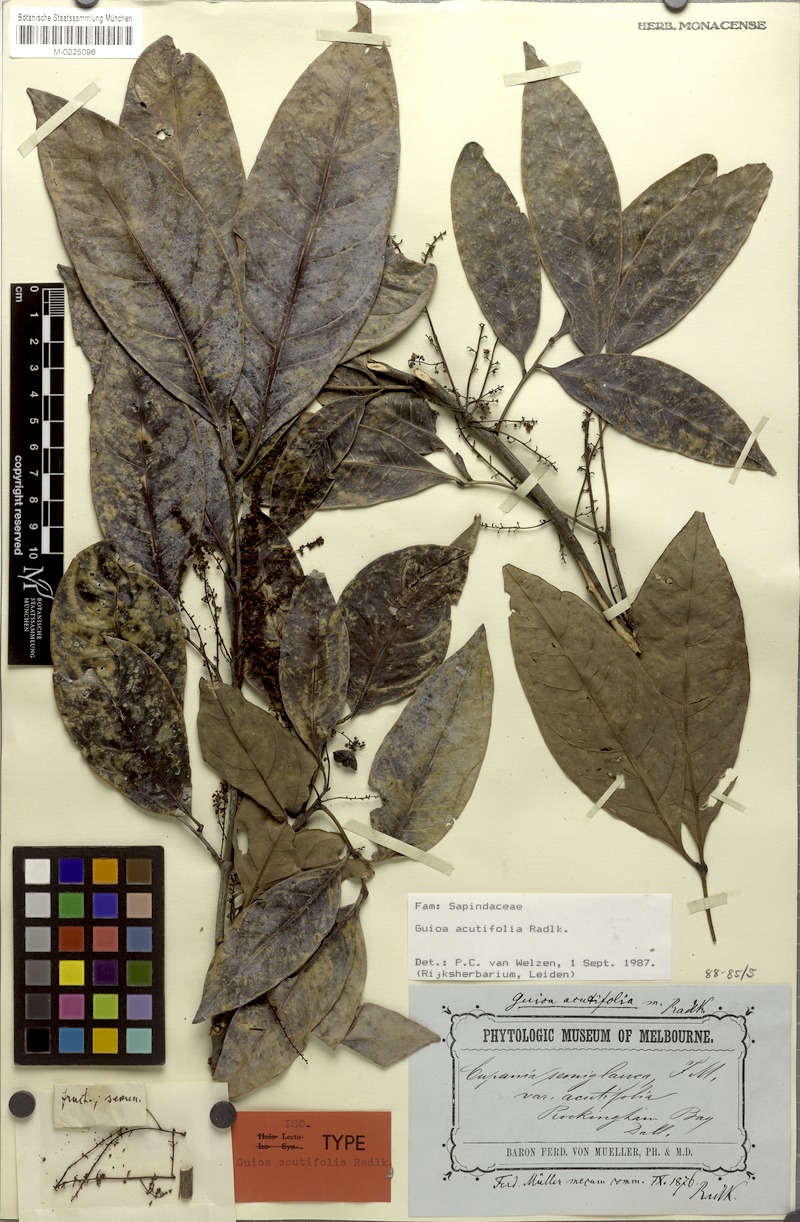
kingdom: Plantae
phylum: Tracheophyta
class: Magnoliopsida
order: Sapindales
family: Sapindaceae
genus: Guioa
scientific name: Guioa acutifolia
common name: Northern guioa
